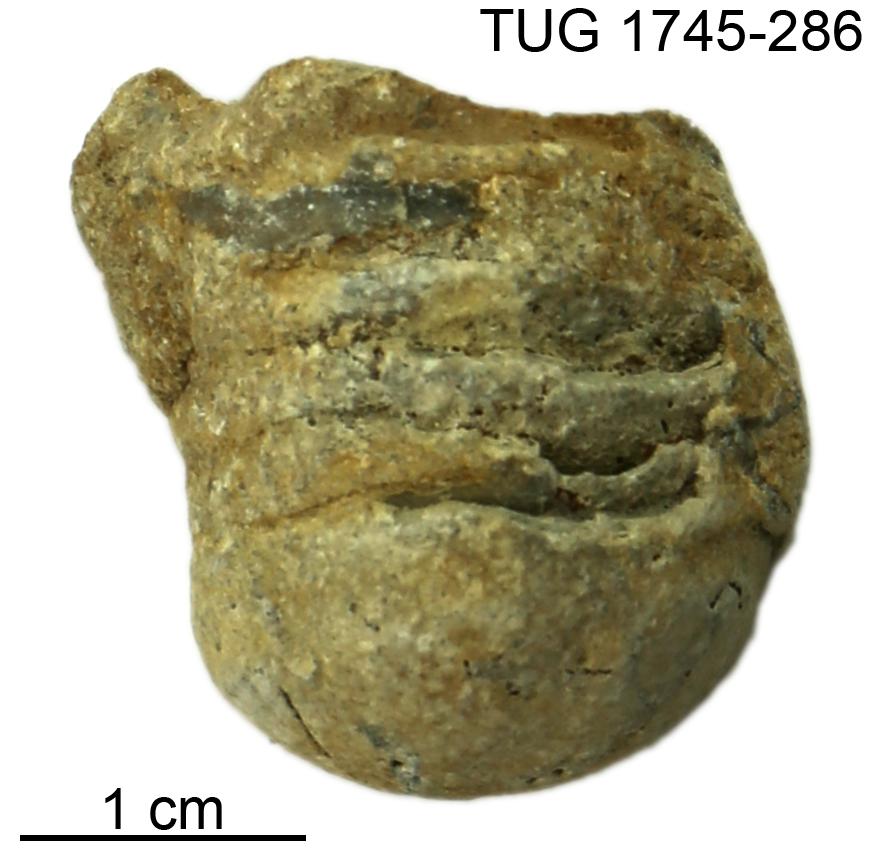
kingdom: Animalia
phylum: Mollusca
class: Cephalopoda
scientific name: Cephalopoda
